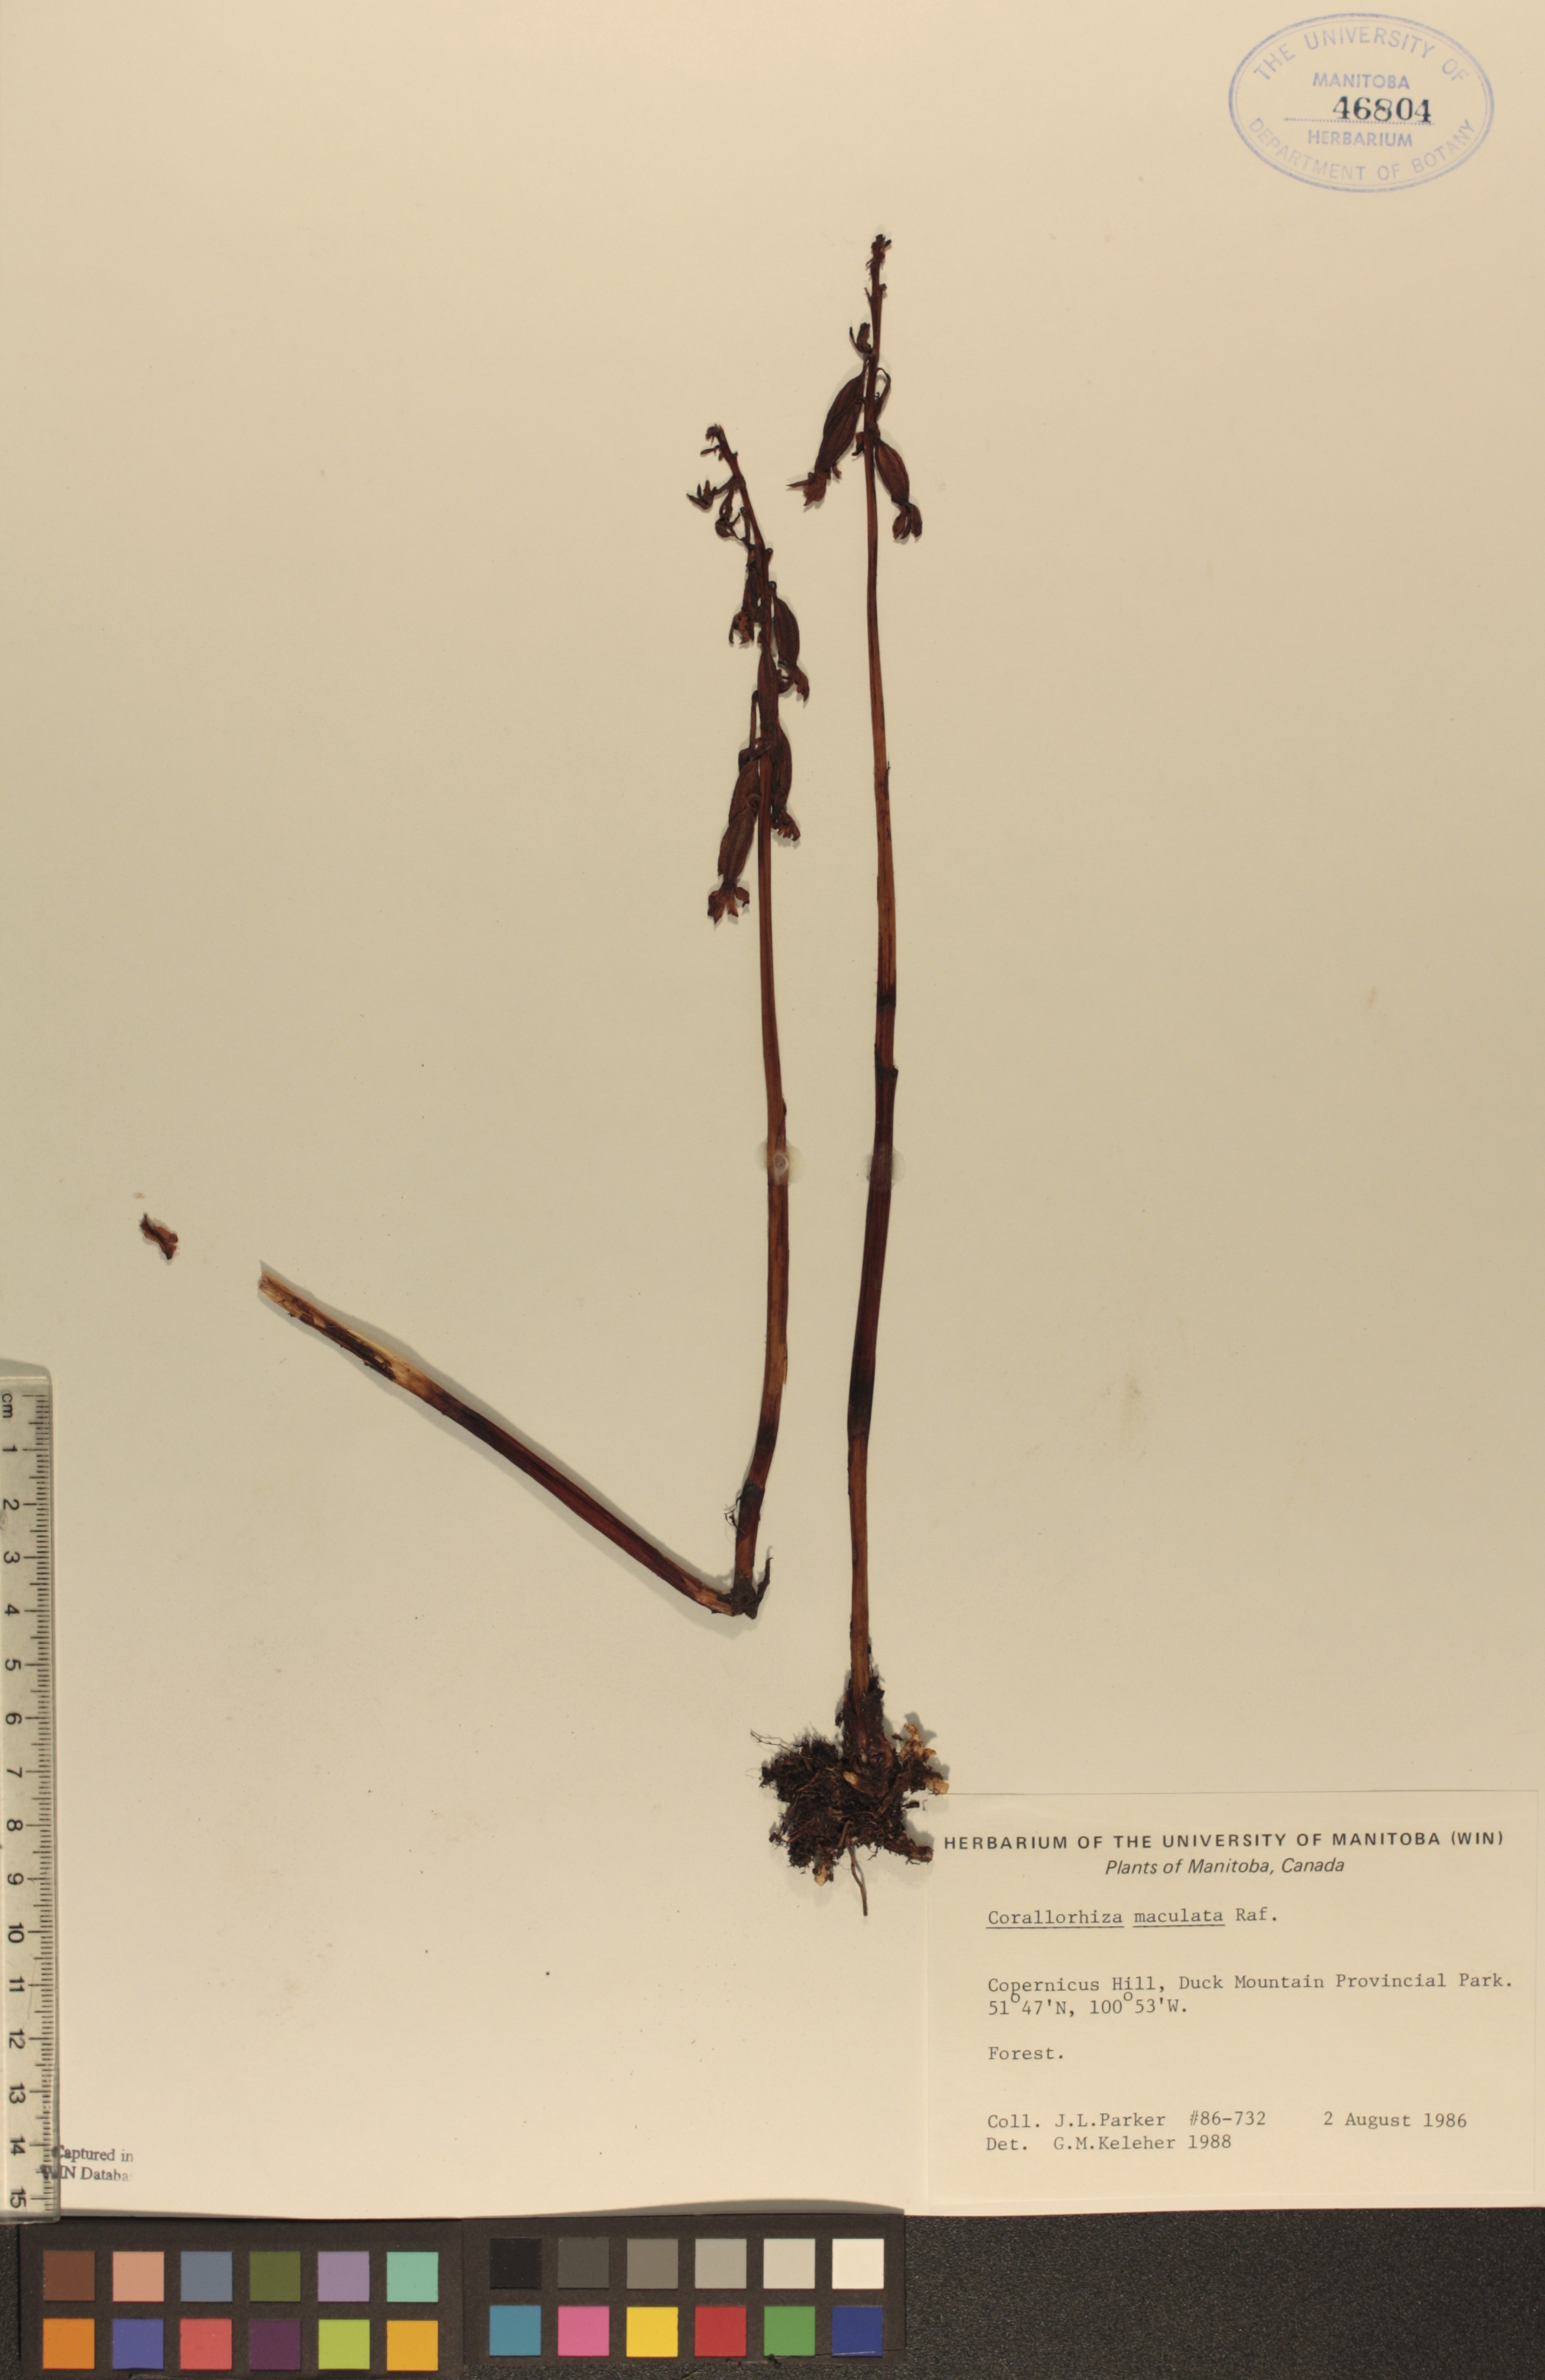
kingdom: Plantae
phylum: Tracheophyta
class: Liliopsida
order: Asparagales
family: Orchidaceae
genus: Corallorhiza
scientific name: Corallorhiza maculata
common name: Spotted coralroot
